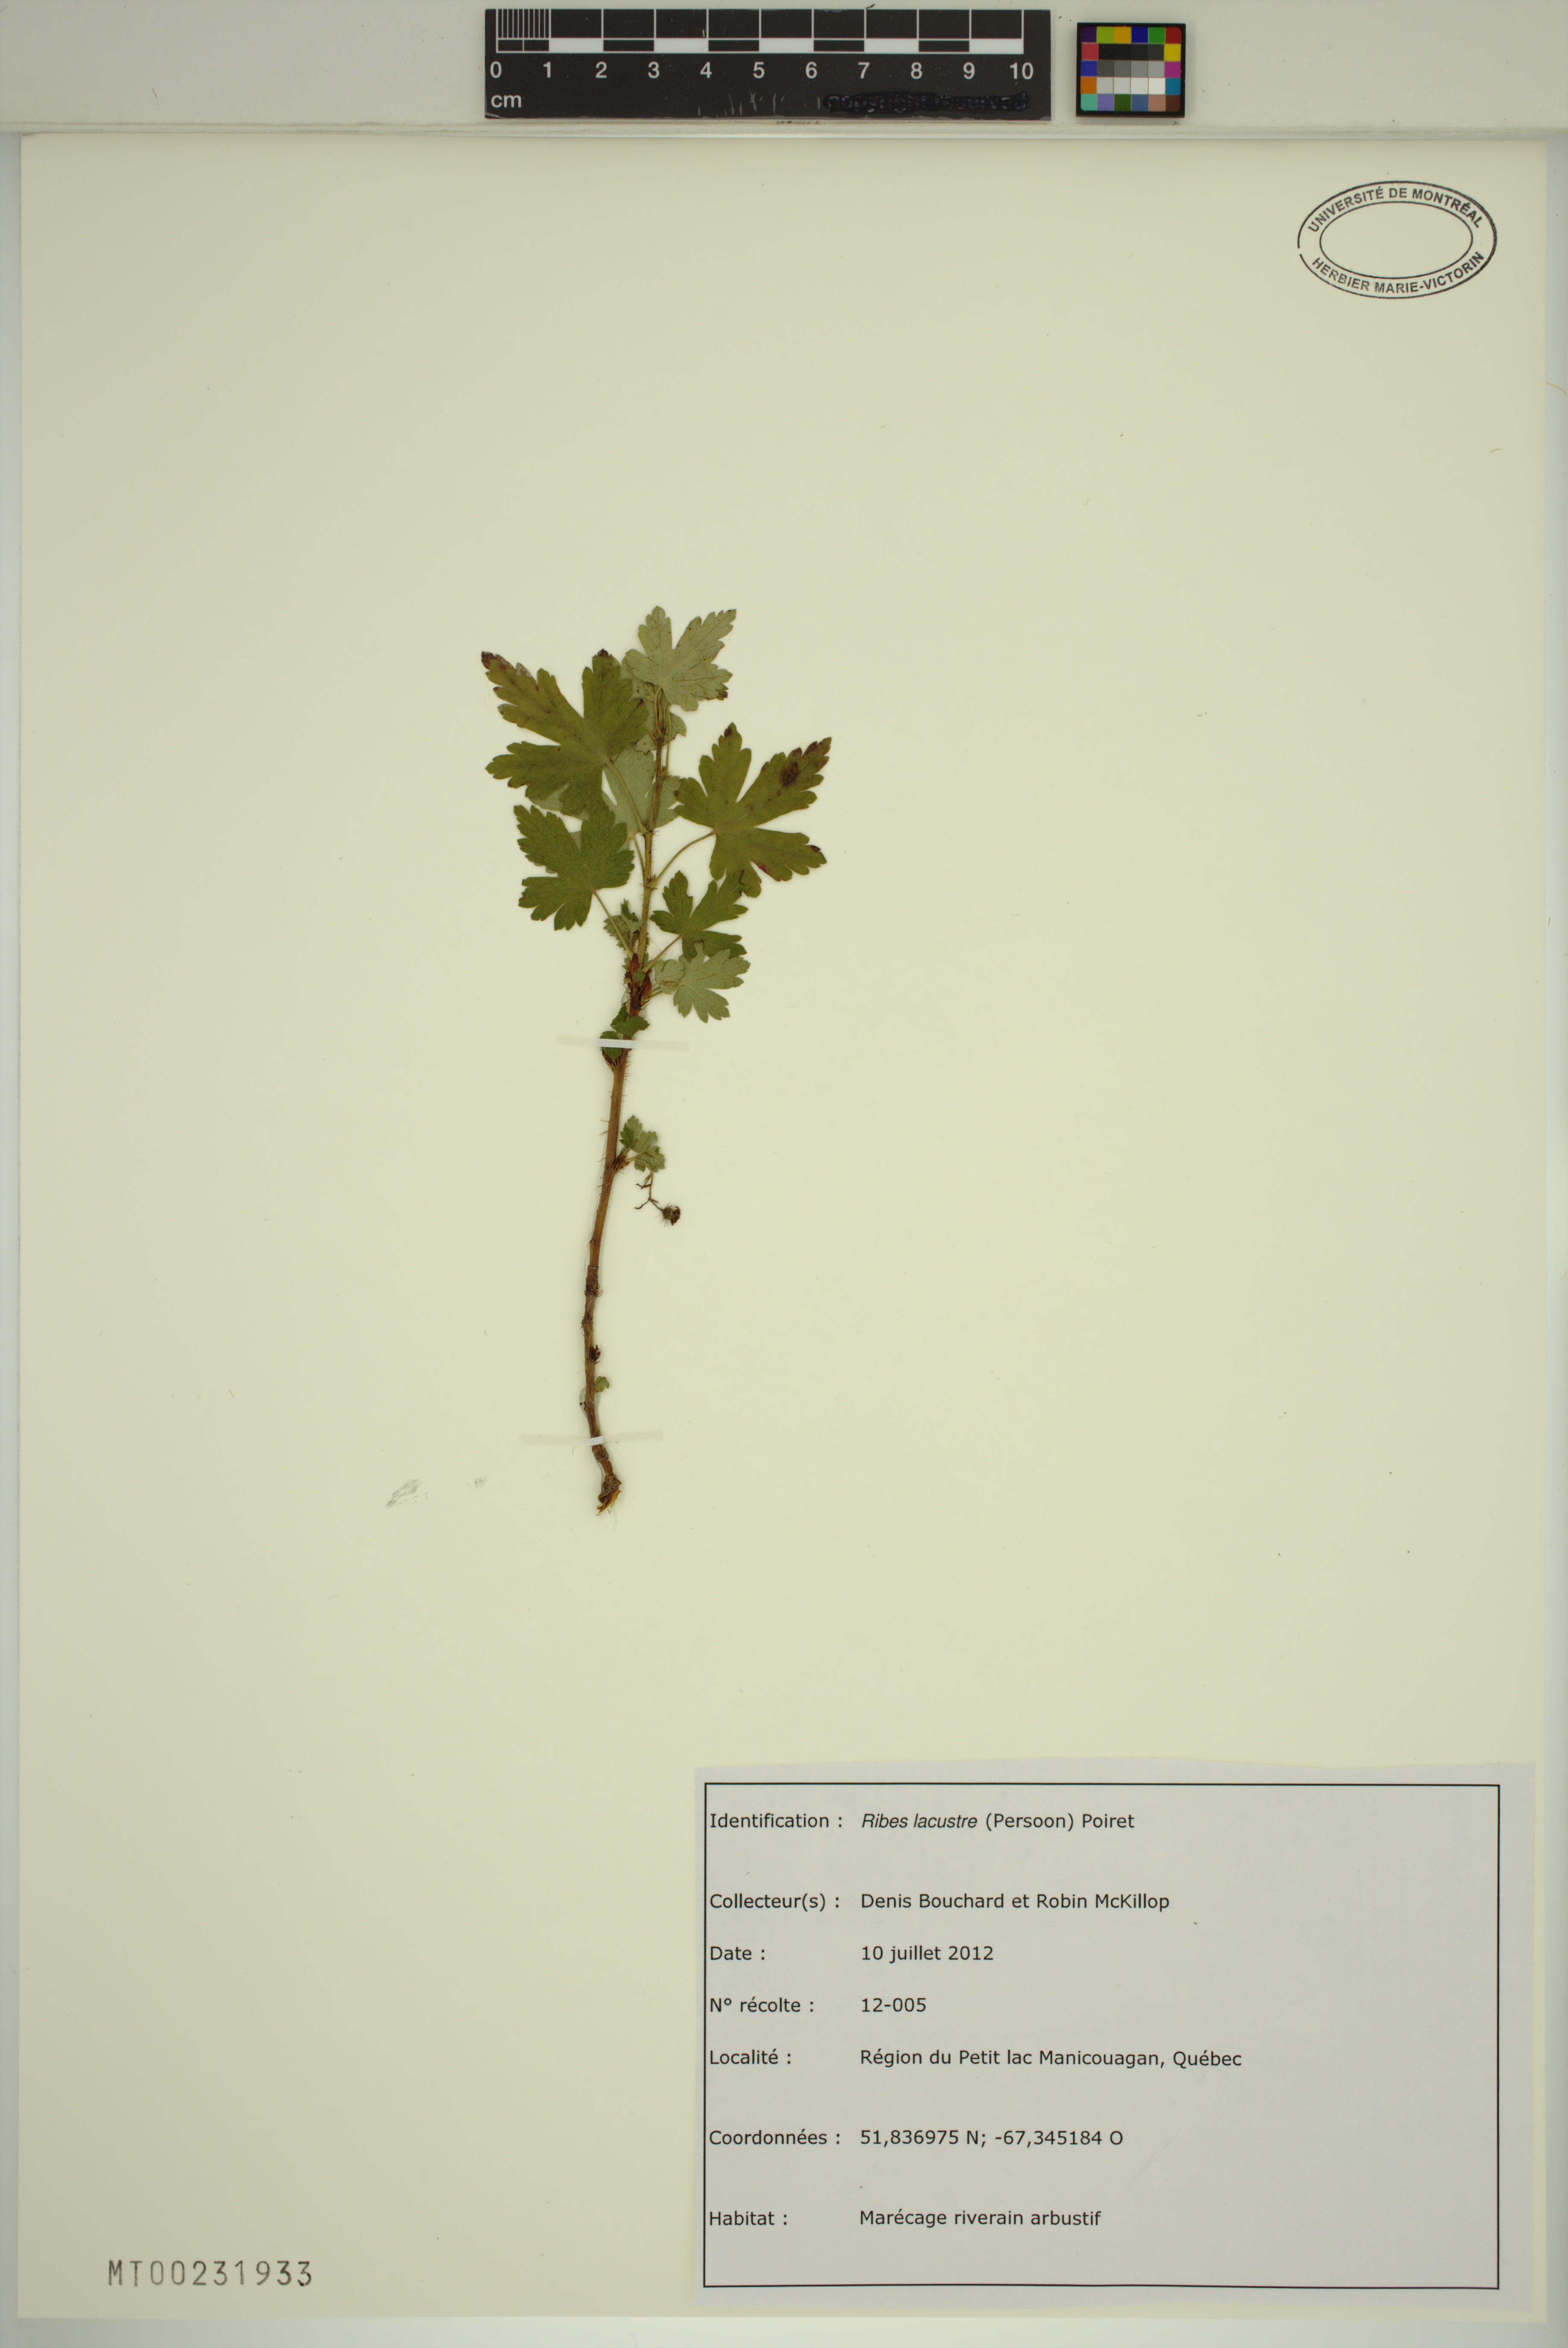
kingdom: Plantae
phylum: Tracheophyta
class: Magnoliopsida
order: Saxifragales
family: Grossulariaceae
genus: Ribes
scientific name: Ribes lacustre
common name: Black gooseberry
